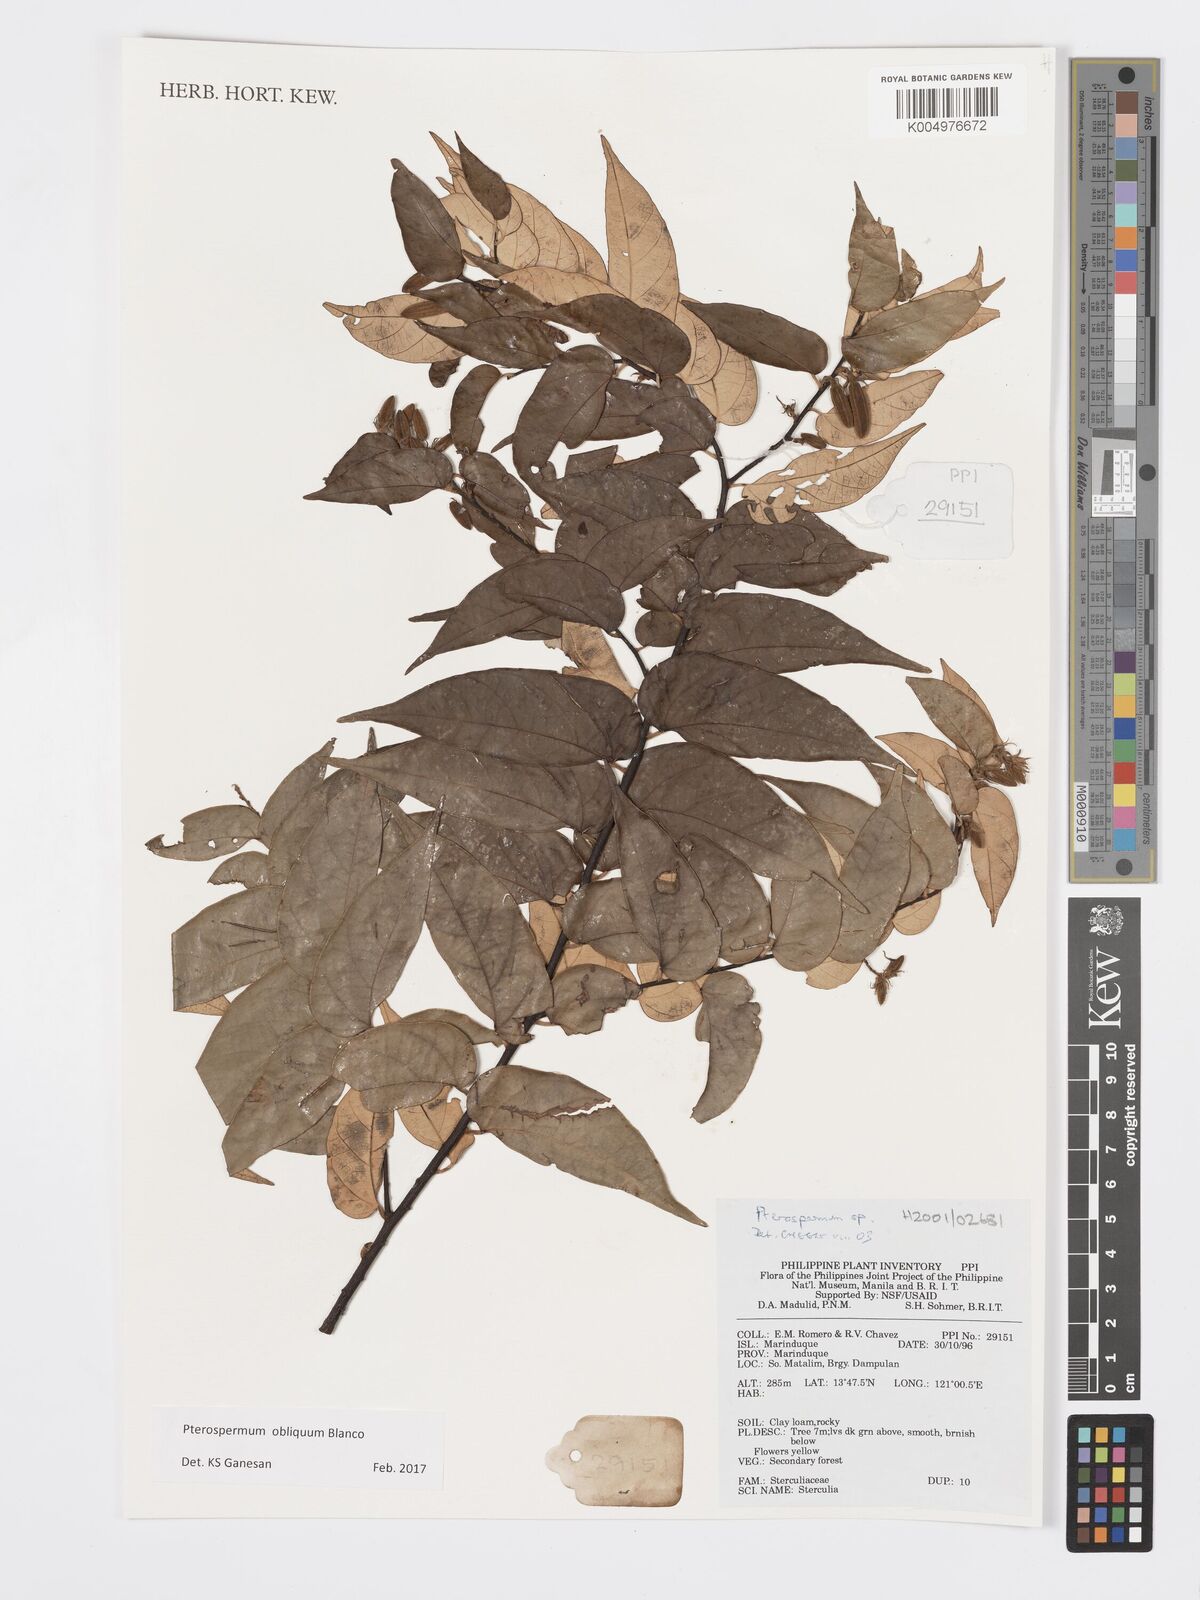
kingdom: Plantae
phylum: Tracheophyta
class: Magnoliopsida
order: Malvales
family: Malvaceae
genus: Pterospermum
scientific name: Pterospermum obliquum
